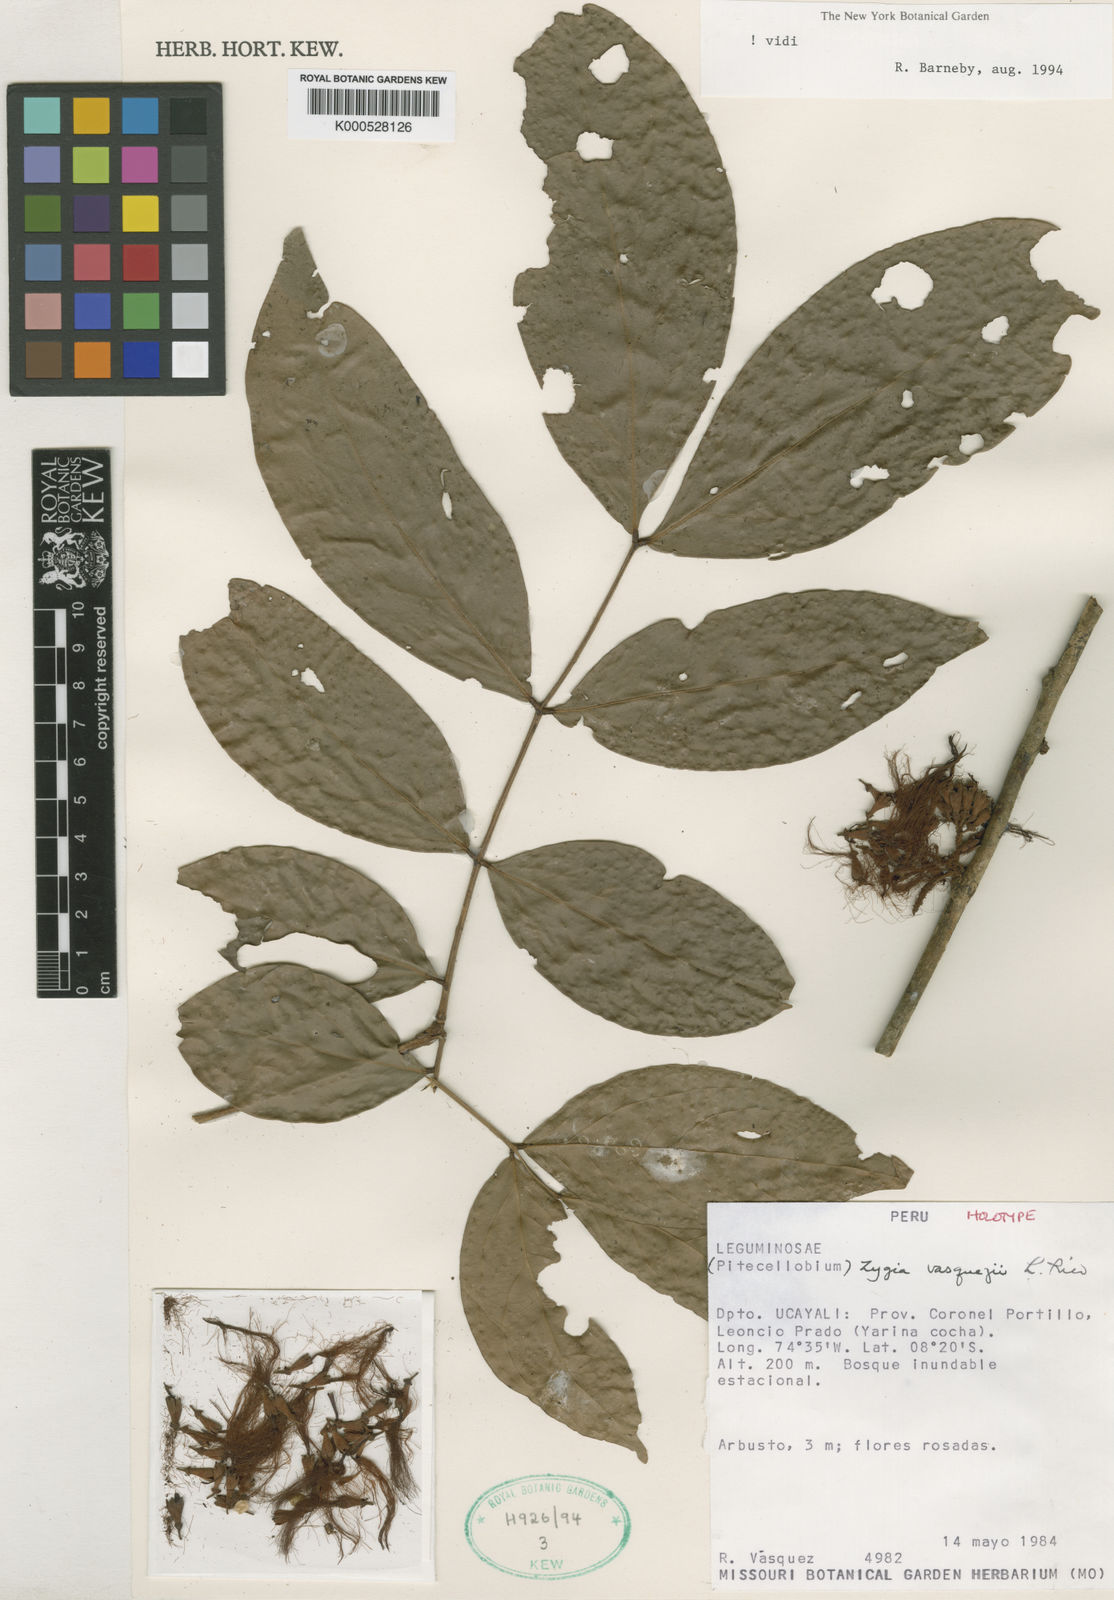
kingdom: Plantae
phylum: Tracheophyta
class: Magnoliopsida
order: Fabales
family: Fabaceae
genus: Zygia
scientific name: Zygia
